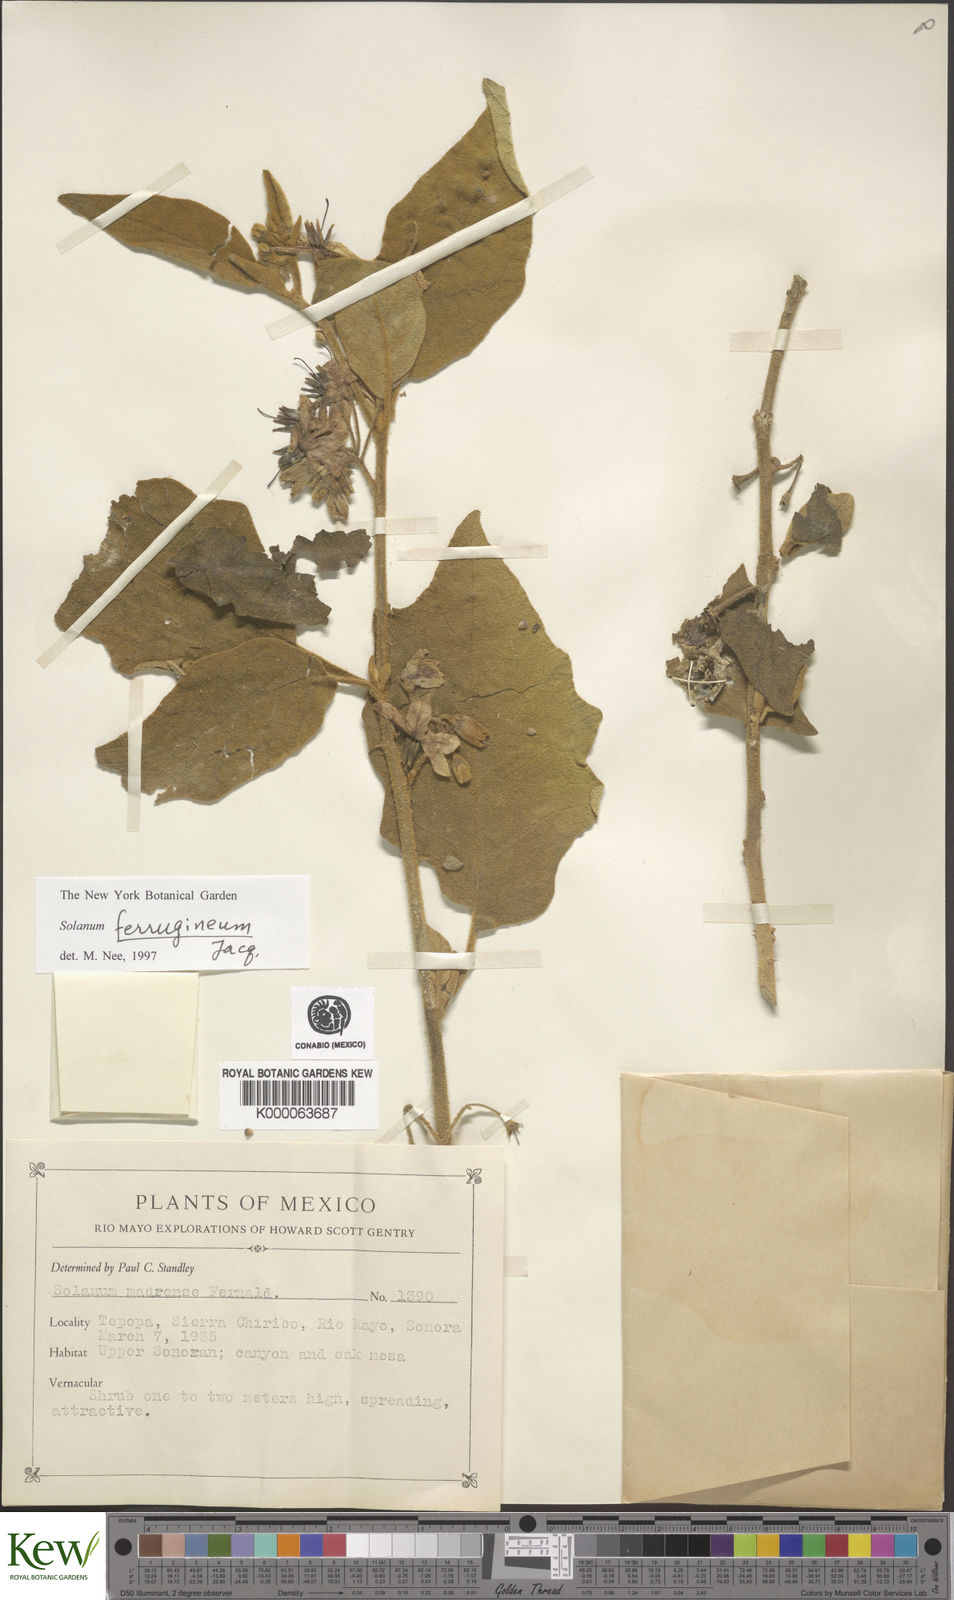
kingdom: Plantae
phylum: Tracheophyta
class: Magnoliopsida
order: Solanales
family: Solanaceae
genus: Solanum
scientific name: Solanum
